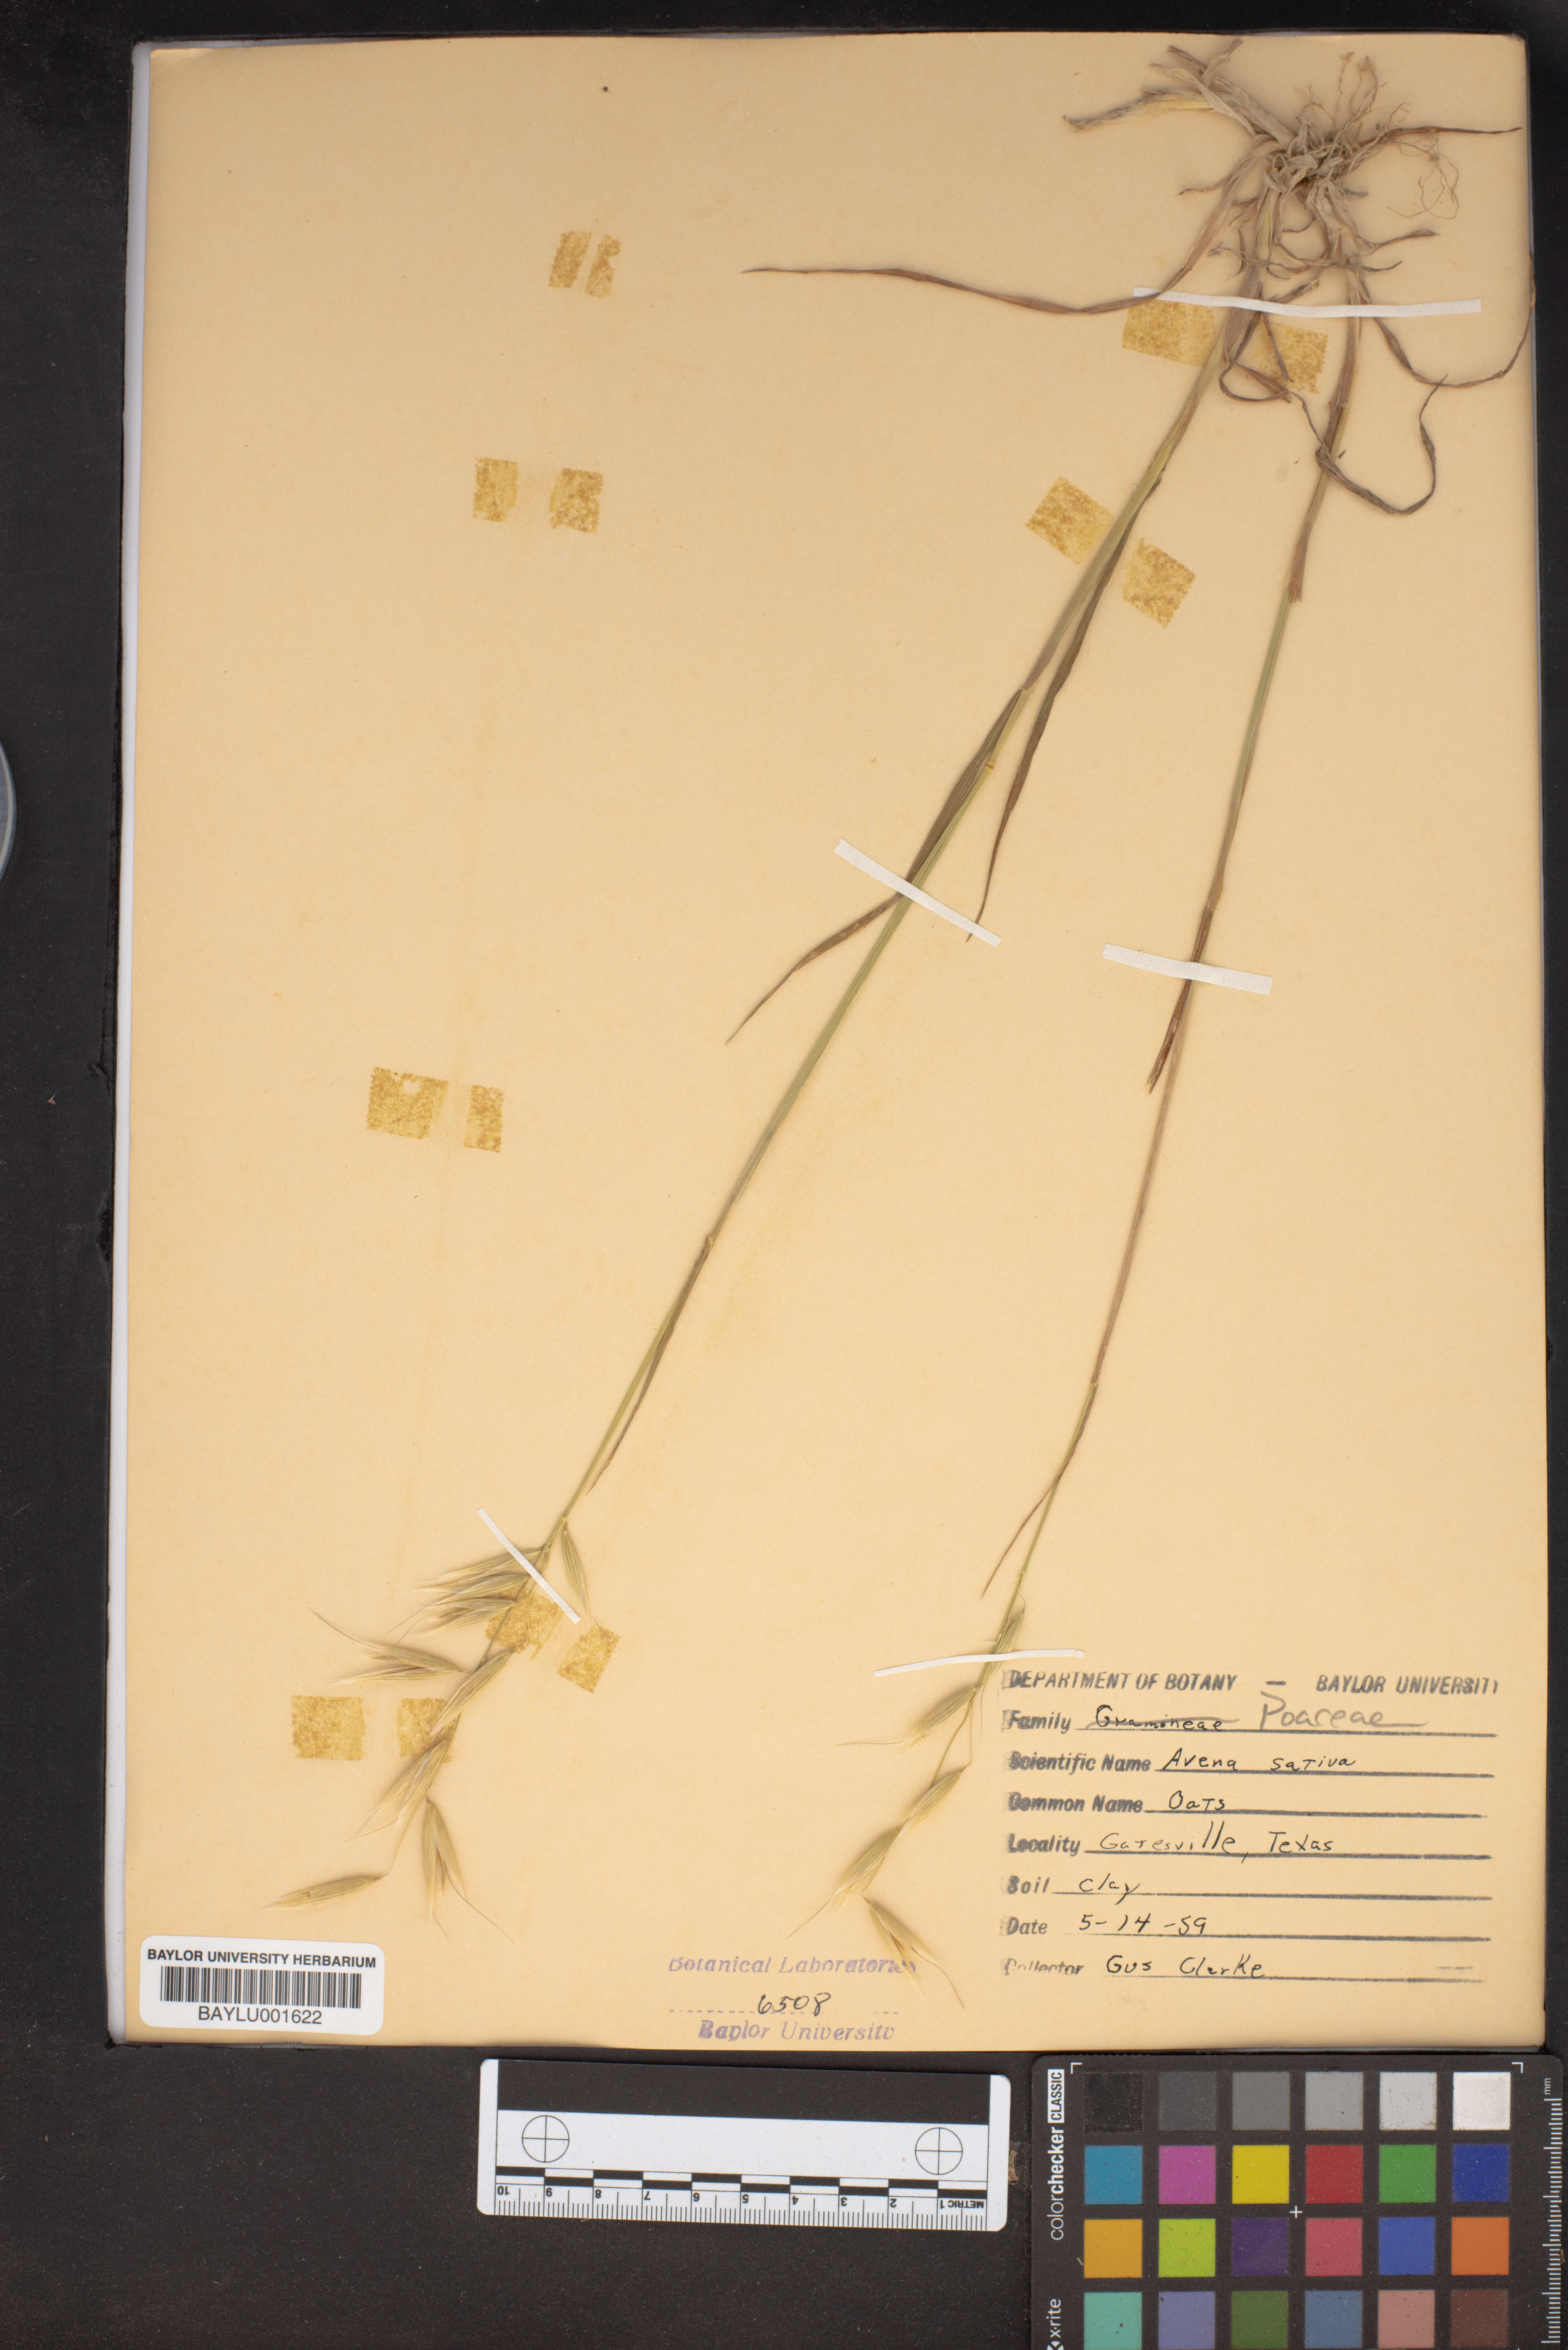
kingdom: Plantae
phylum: Tracheophyta
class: Liliopsida
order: Poales
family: Poaceae
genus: Avena
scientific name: Avena sativa
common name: Oat
